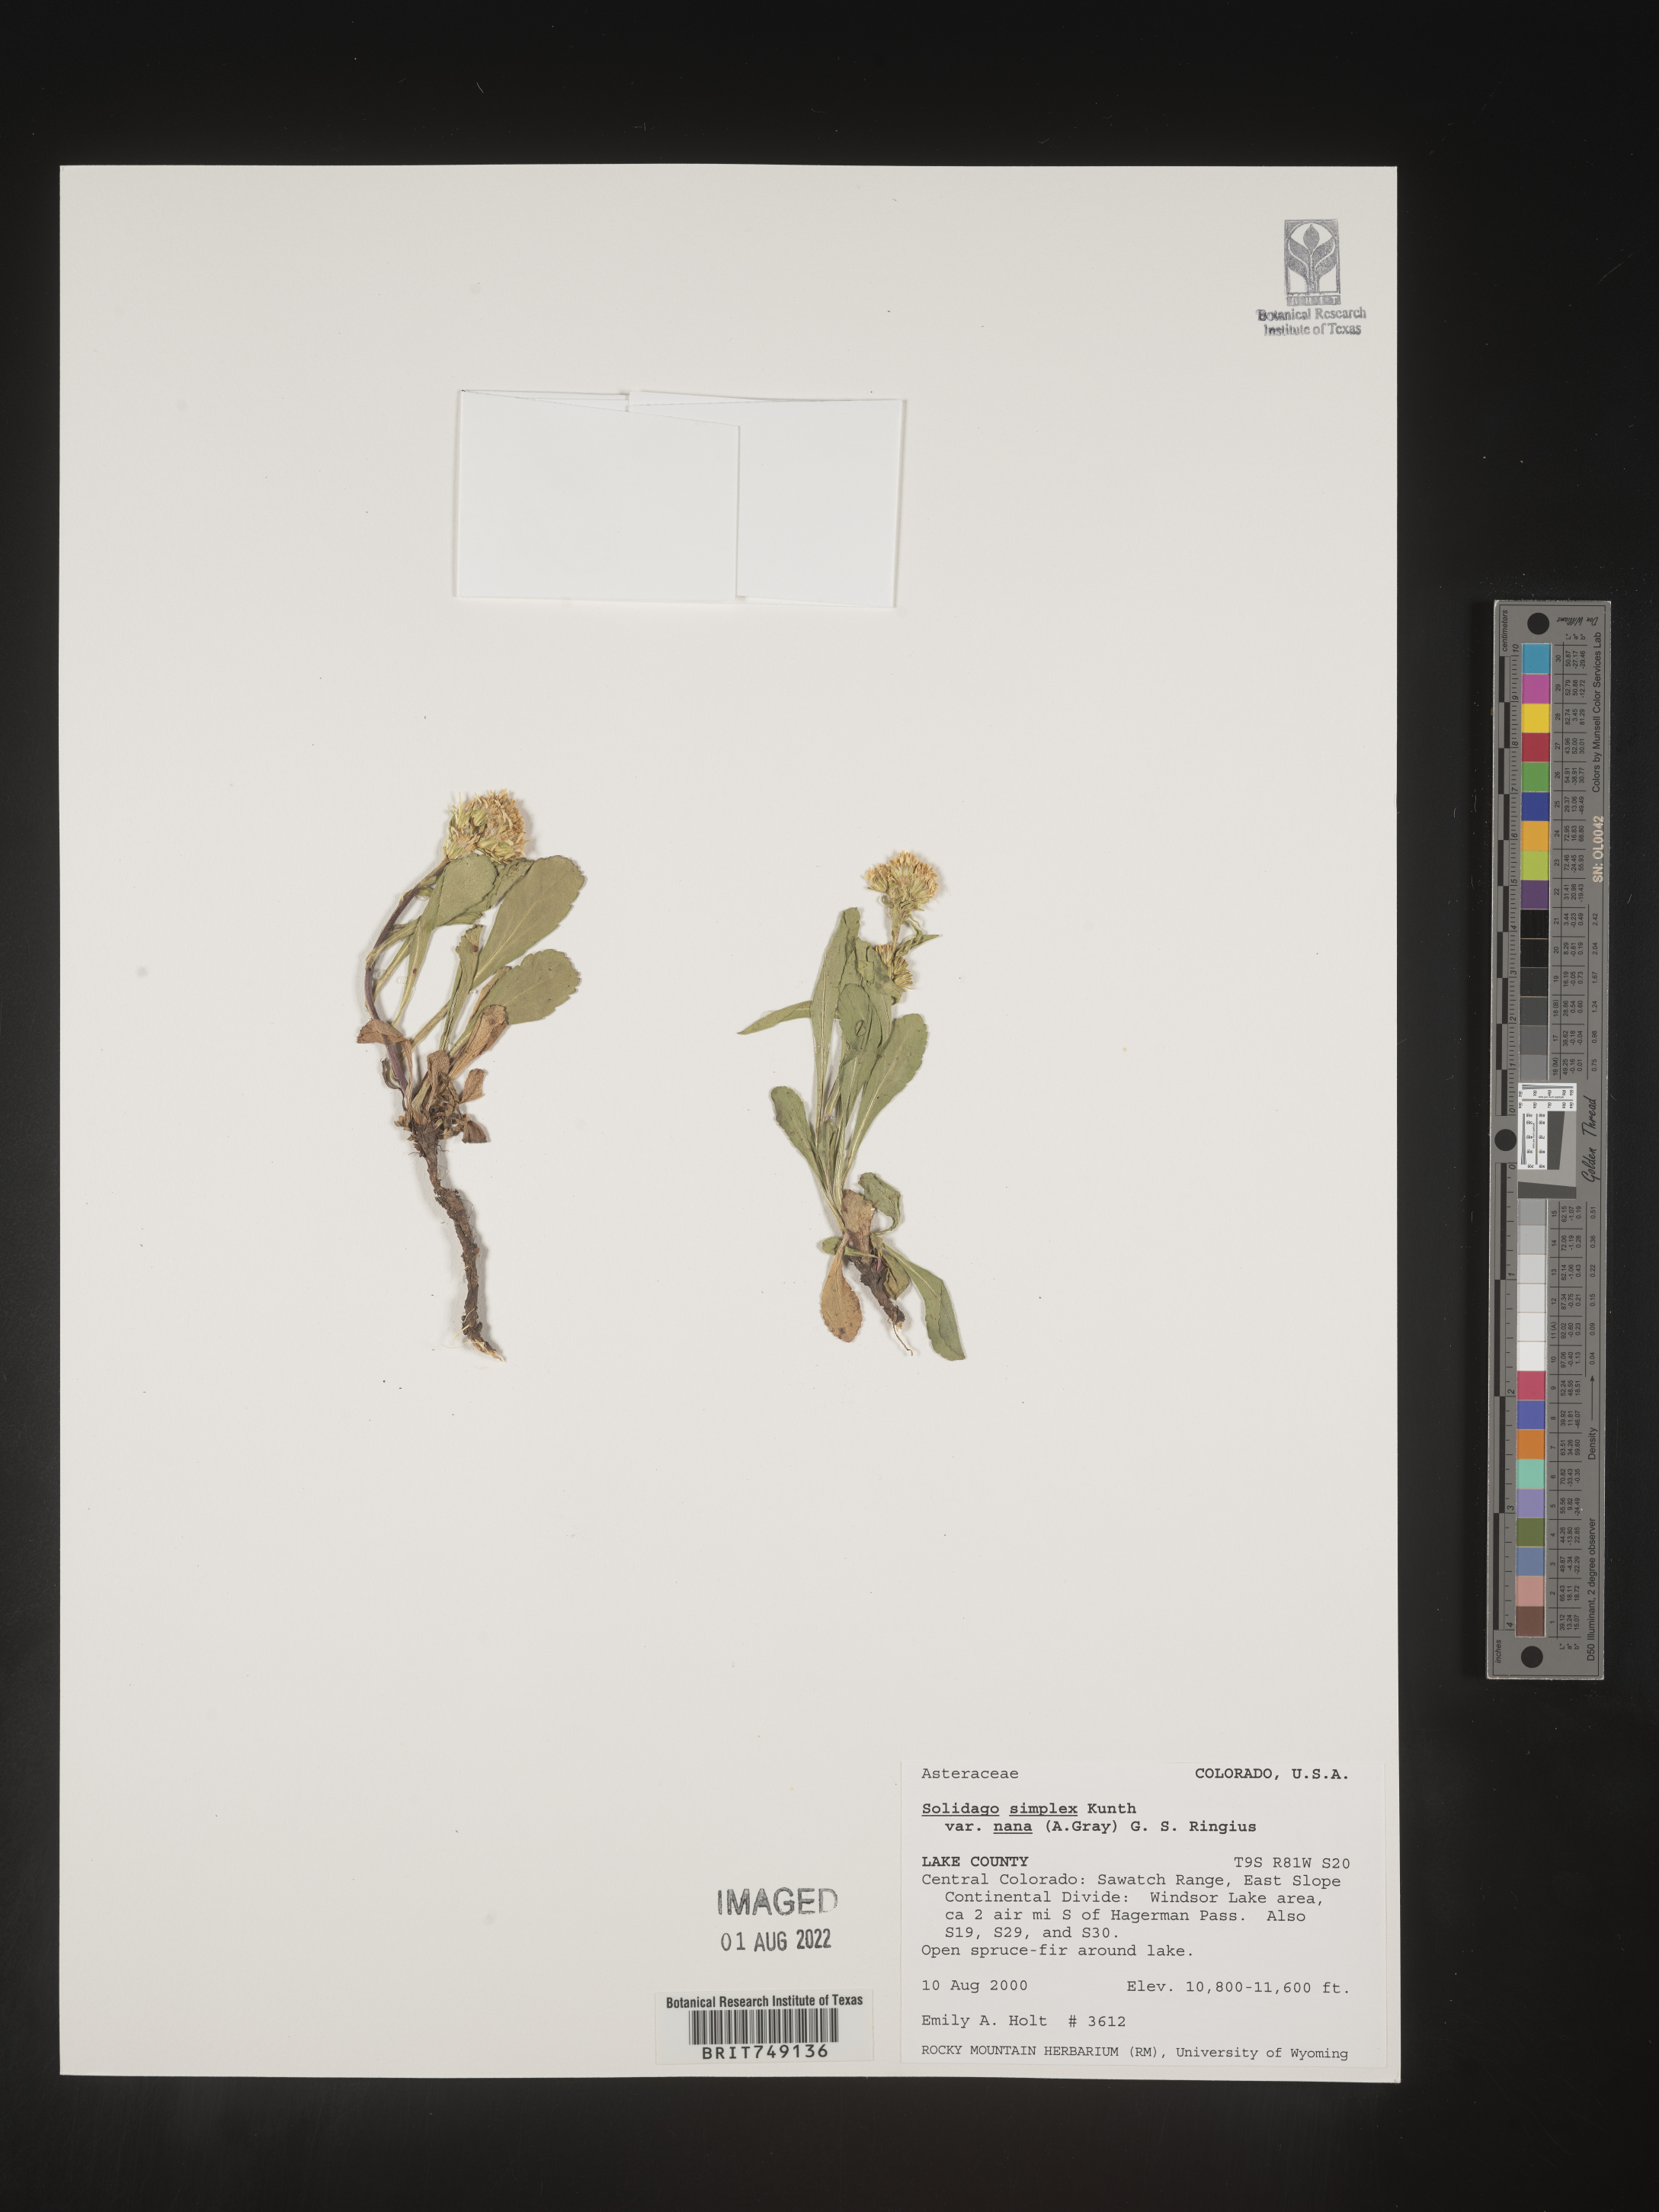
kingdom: Plantae
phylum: Tracheophyta
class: Magnoliopsida
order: Asterales
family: Asteraceae
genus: Solidago
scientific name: Solidago simplex
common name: Sticky goldenrod
